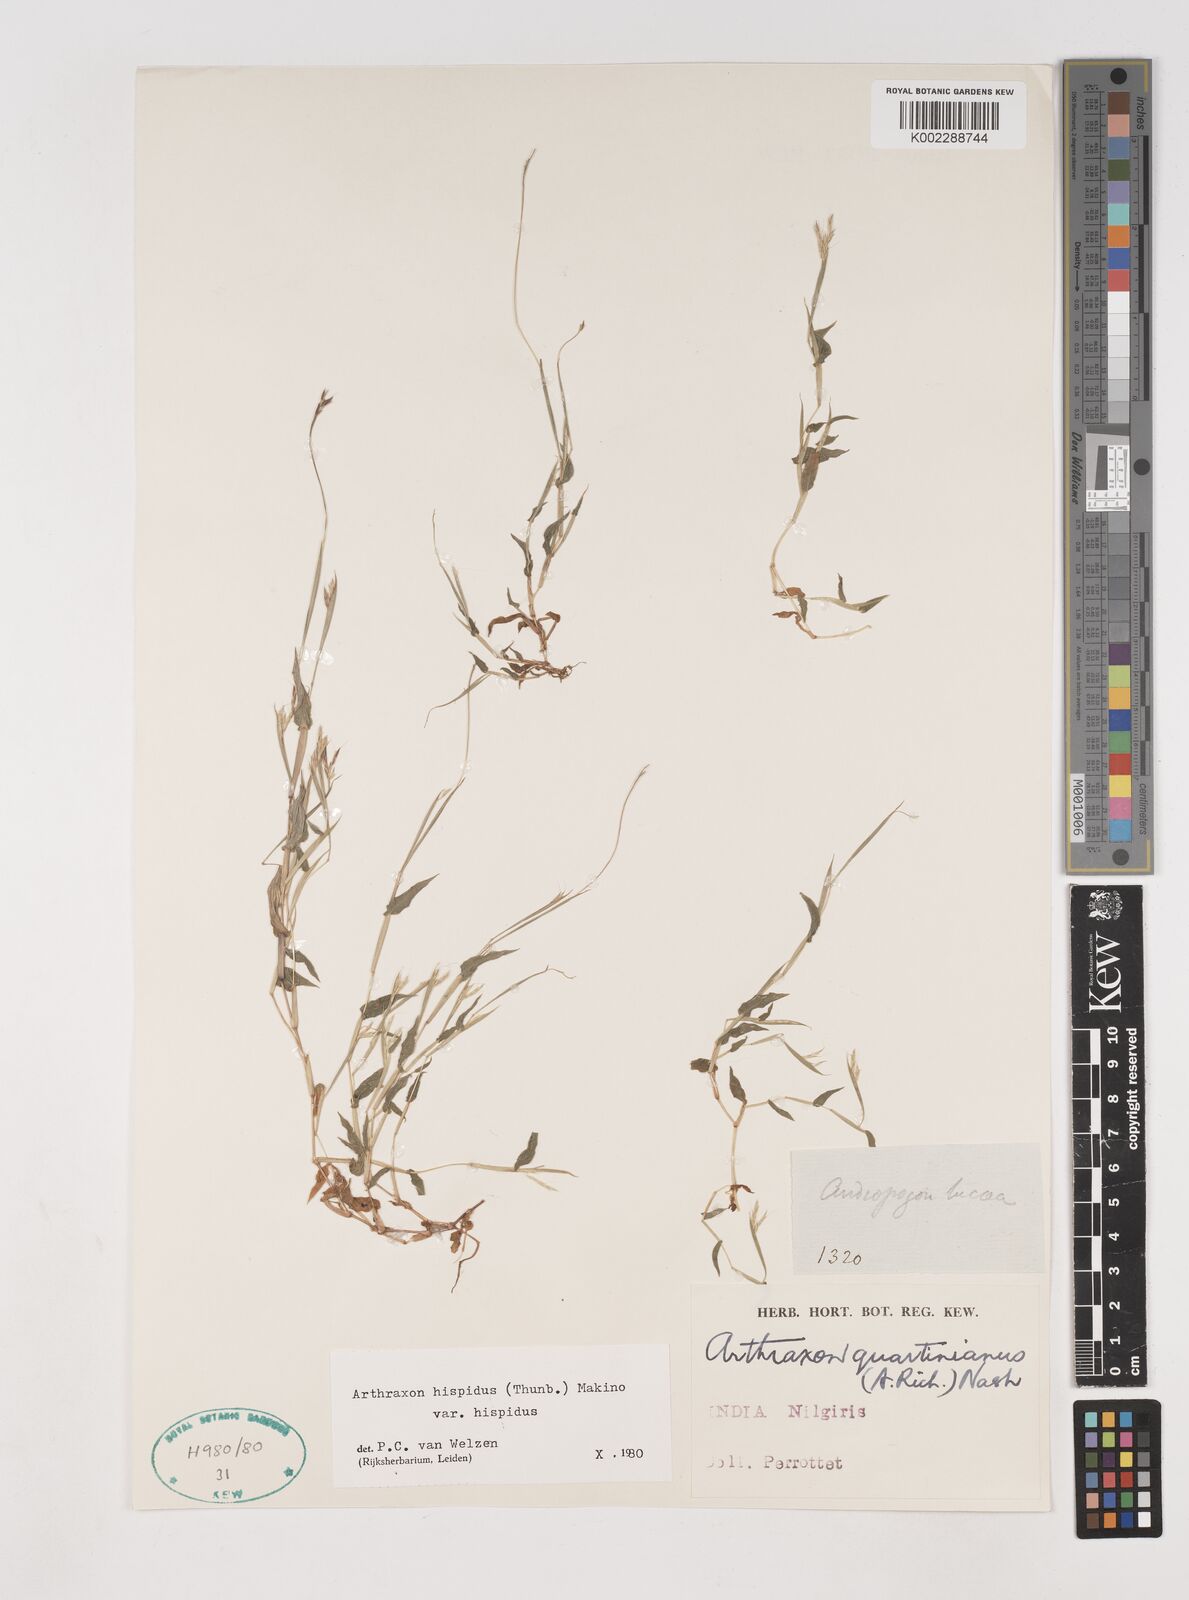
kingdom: Plantae
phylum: Tracheophyta
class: Liliopsida
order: Poales
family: Poaceae
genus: Arthraxon
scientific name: Arthraxon hispidus
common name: Small carpgrass
